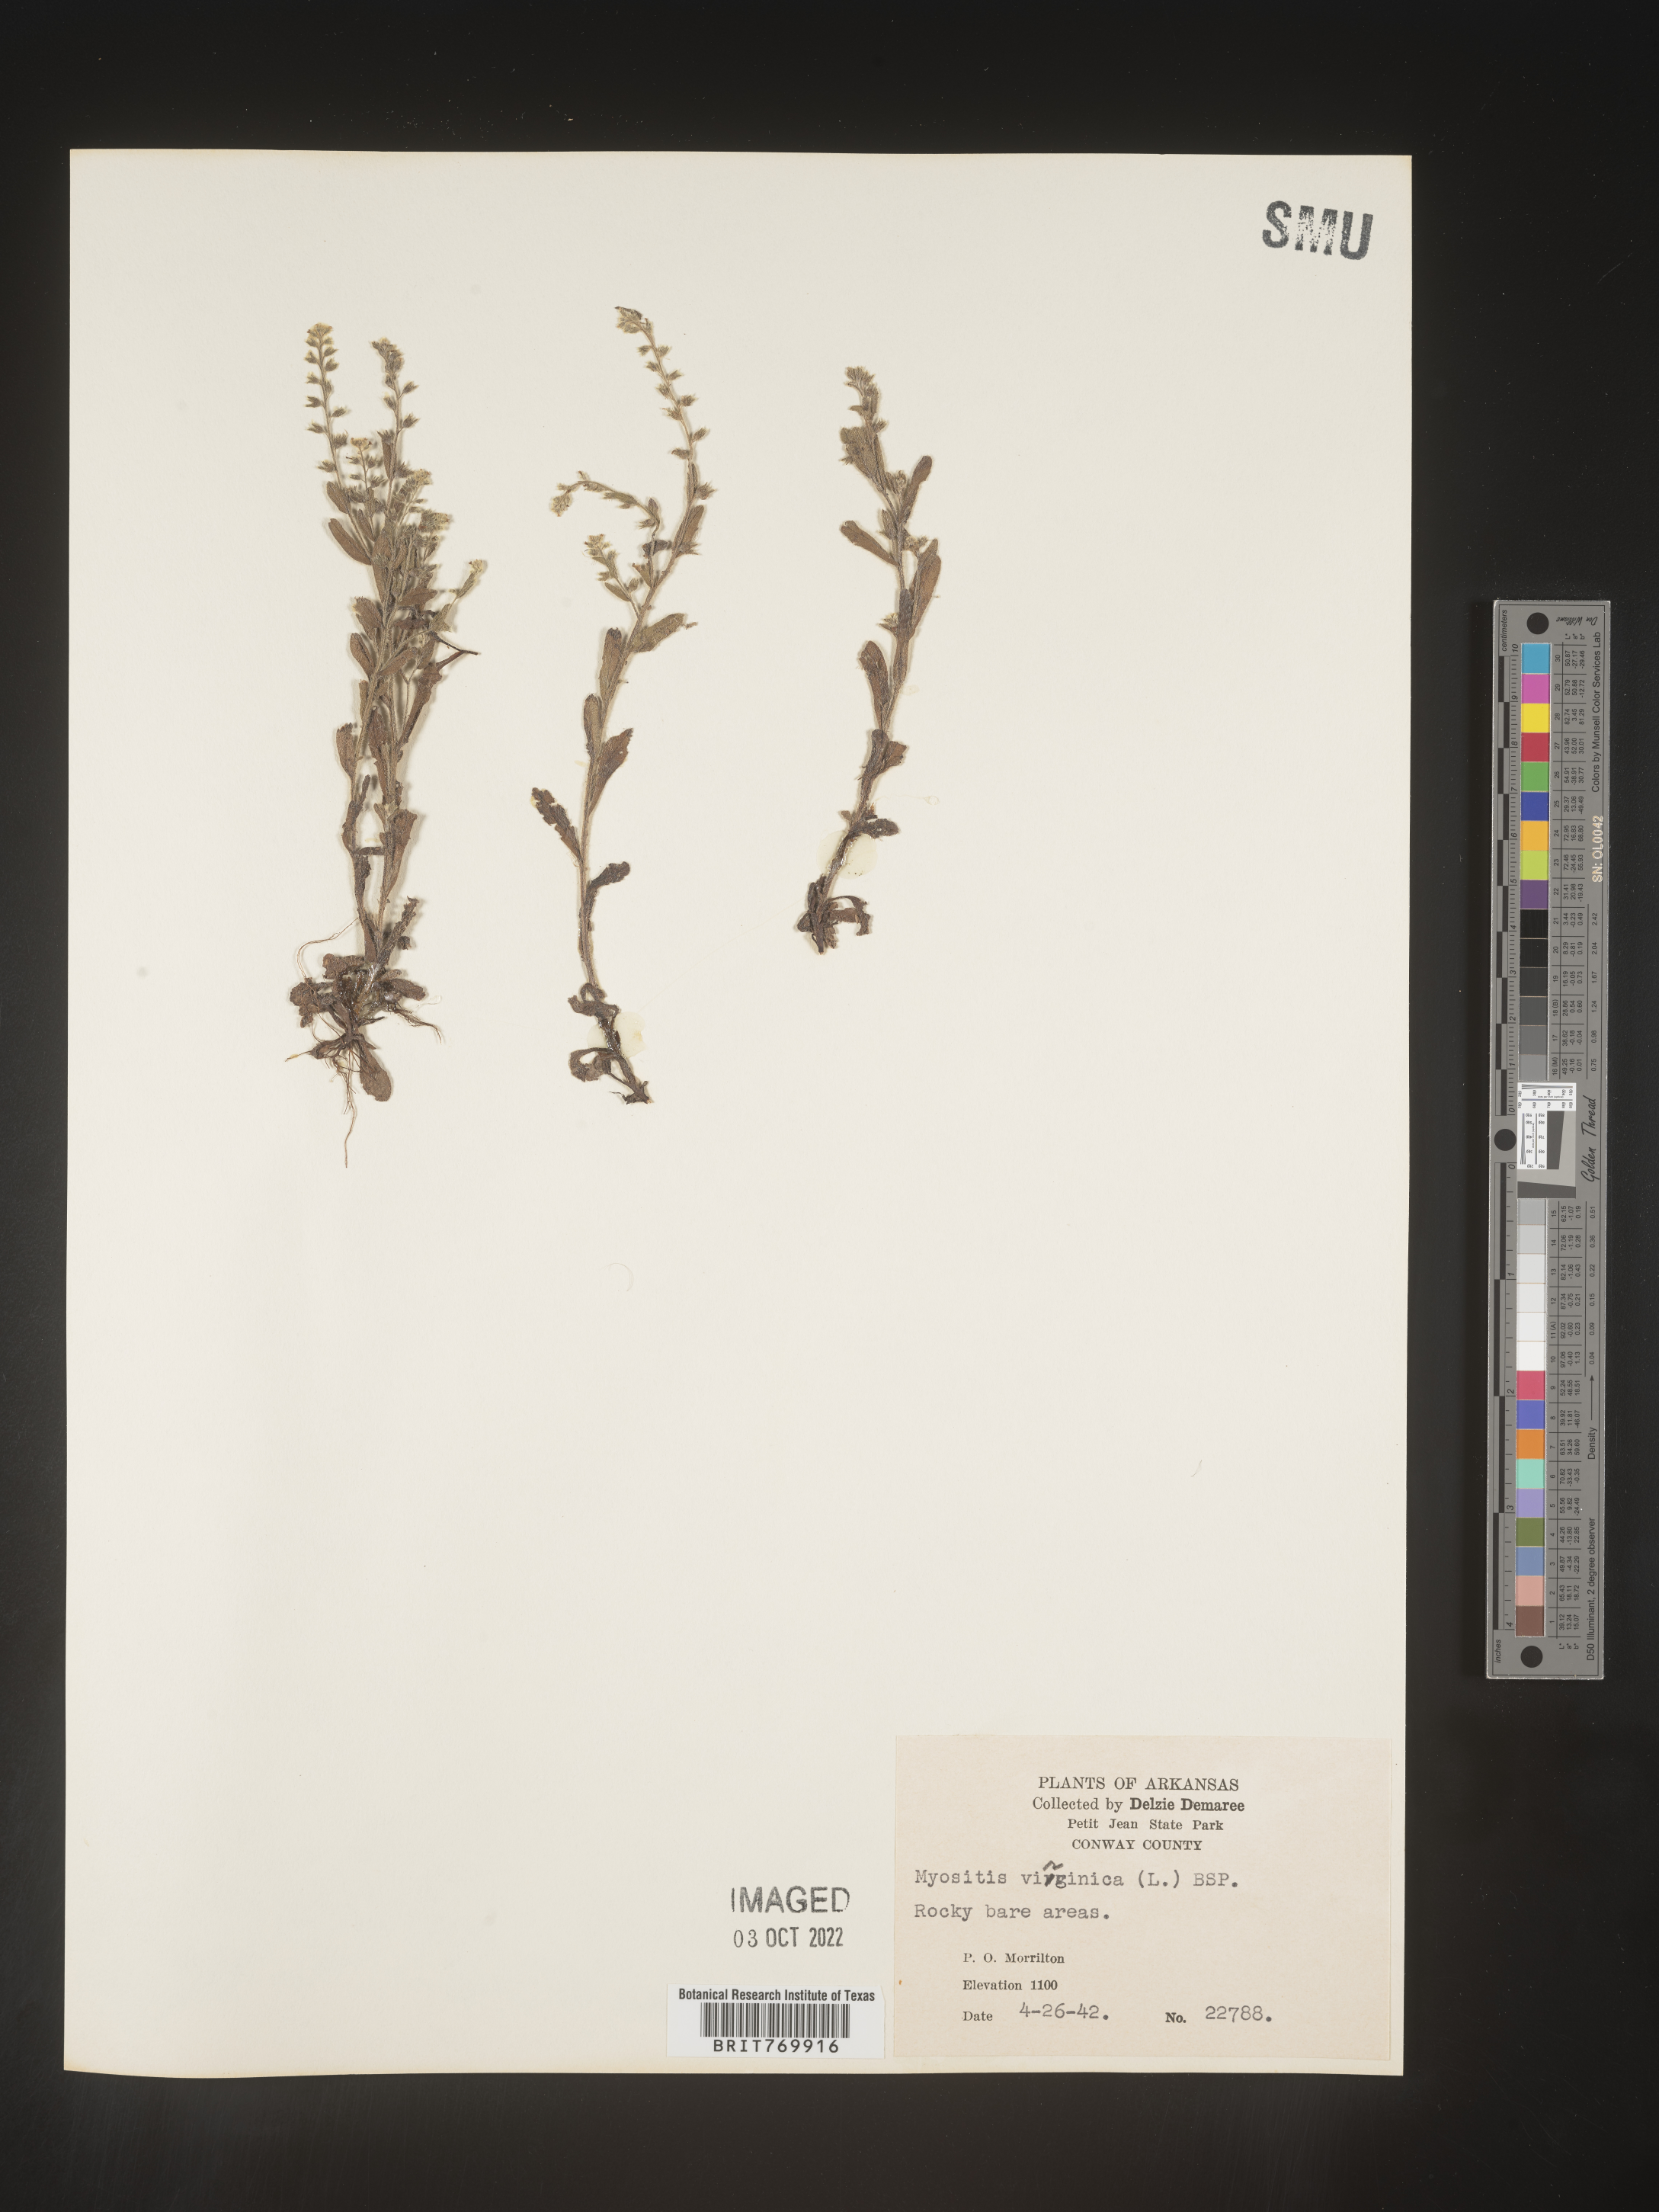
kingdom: Plantae
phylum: Tracheophyta
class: Magnoliopsida
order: Boraginales
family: Boraginaceae
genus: Myosotis
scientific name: Myosotis verna
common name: Early forget-me-not
